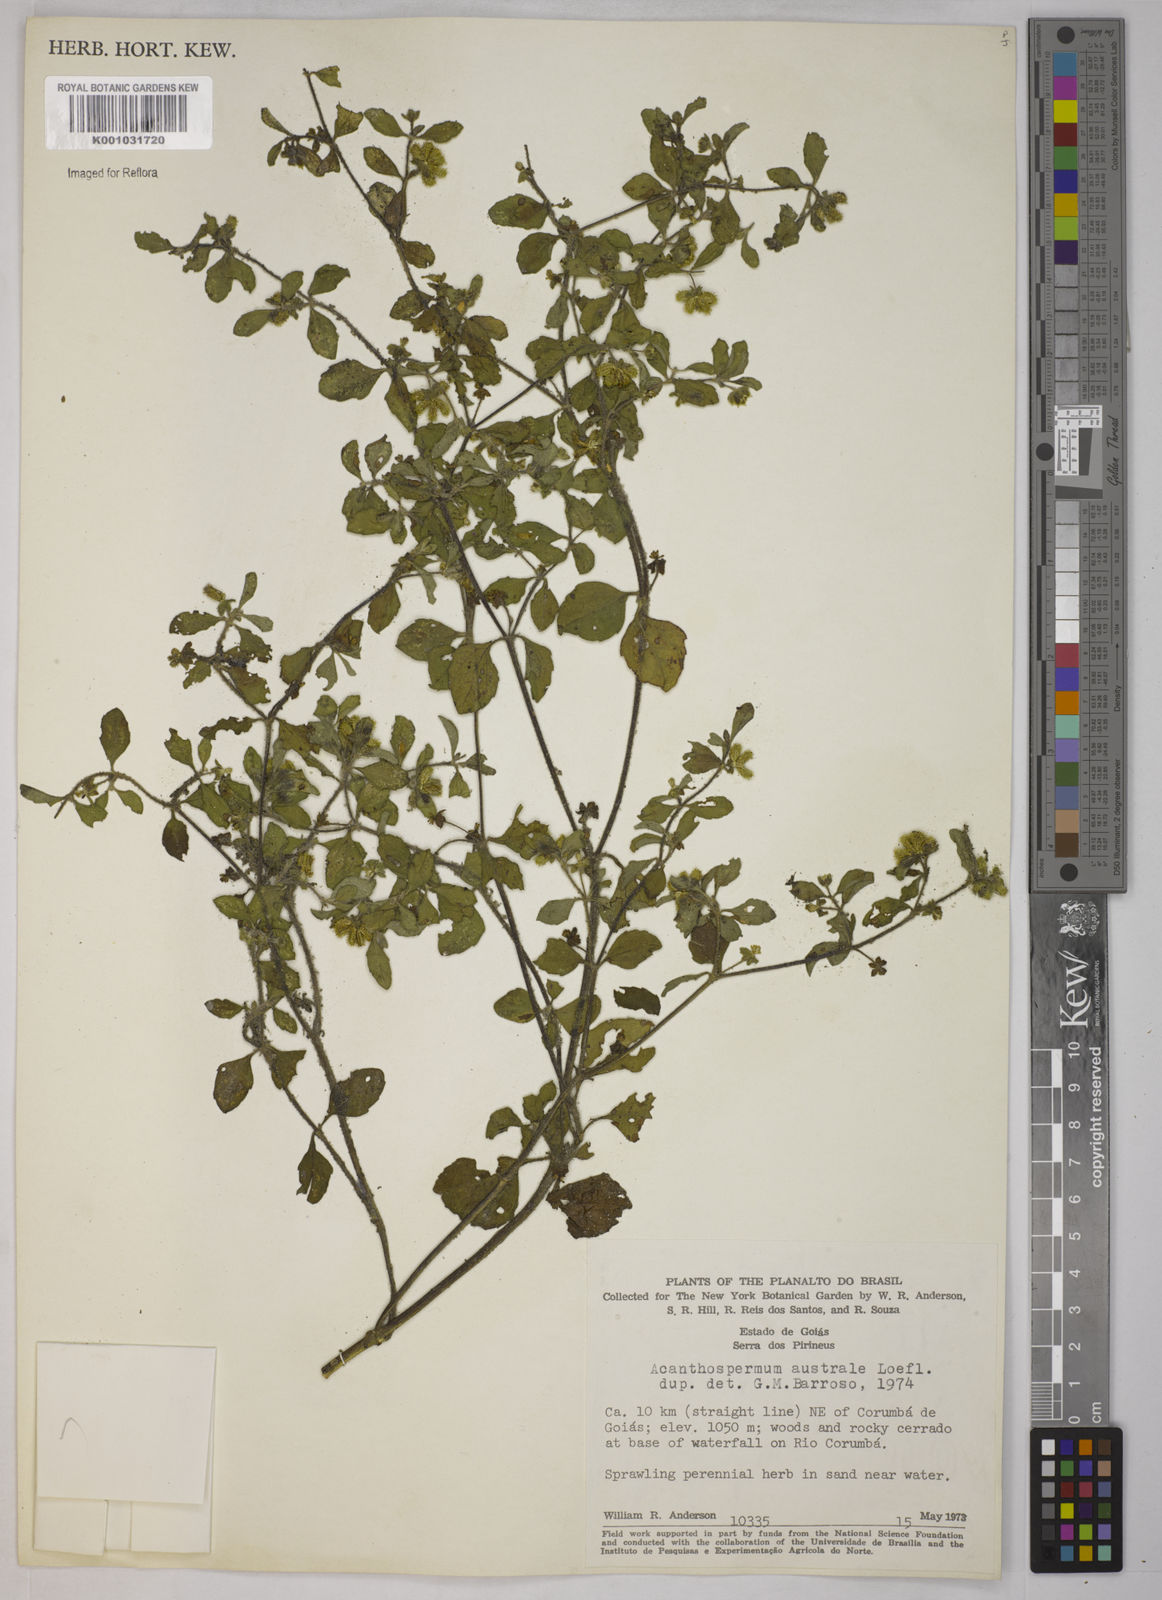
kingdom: Plantae
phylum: Tracheophyta
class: Magnoliopsida
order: Asterales
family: Asteraceae
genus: Acanthospermum
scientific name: Acanthospermum australe
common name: Paraguayan starbur
